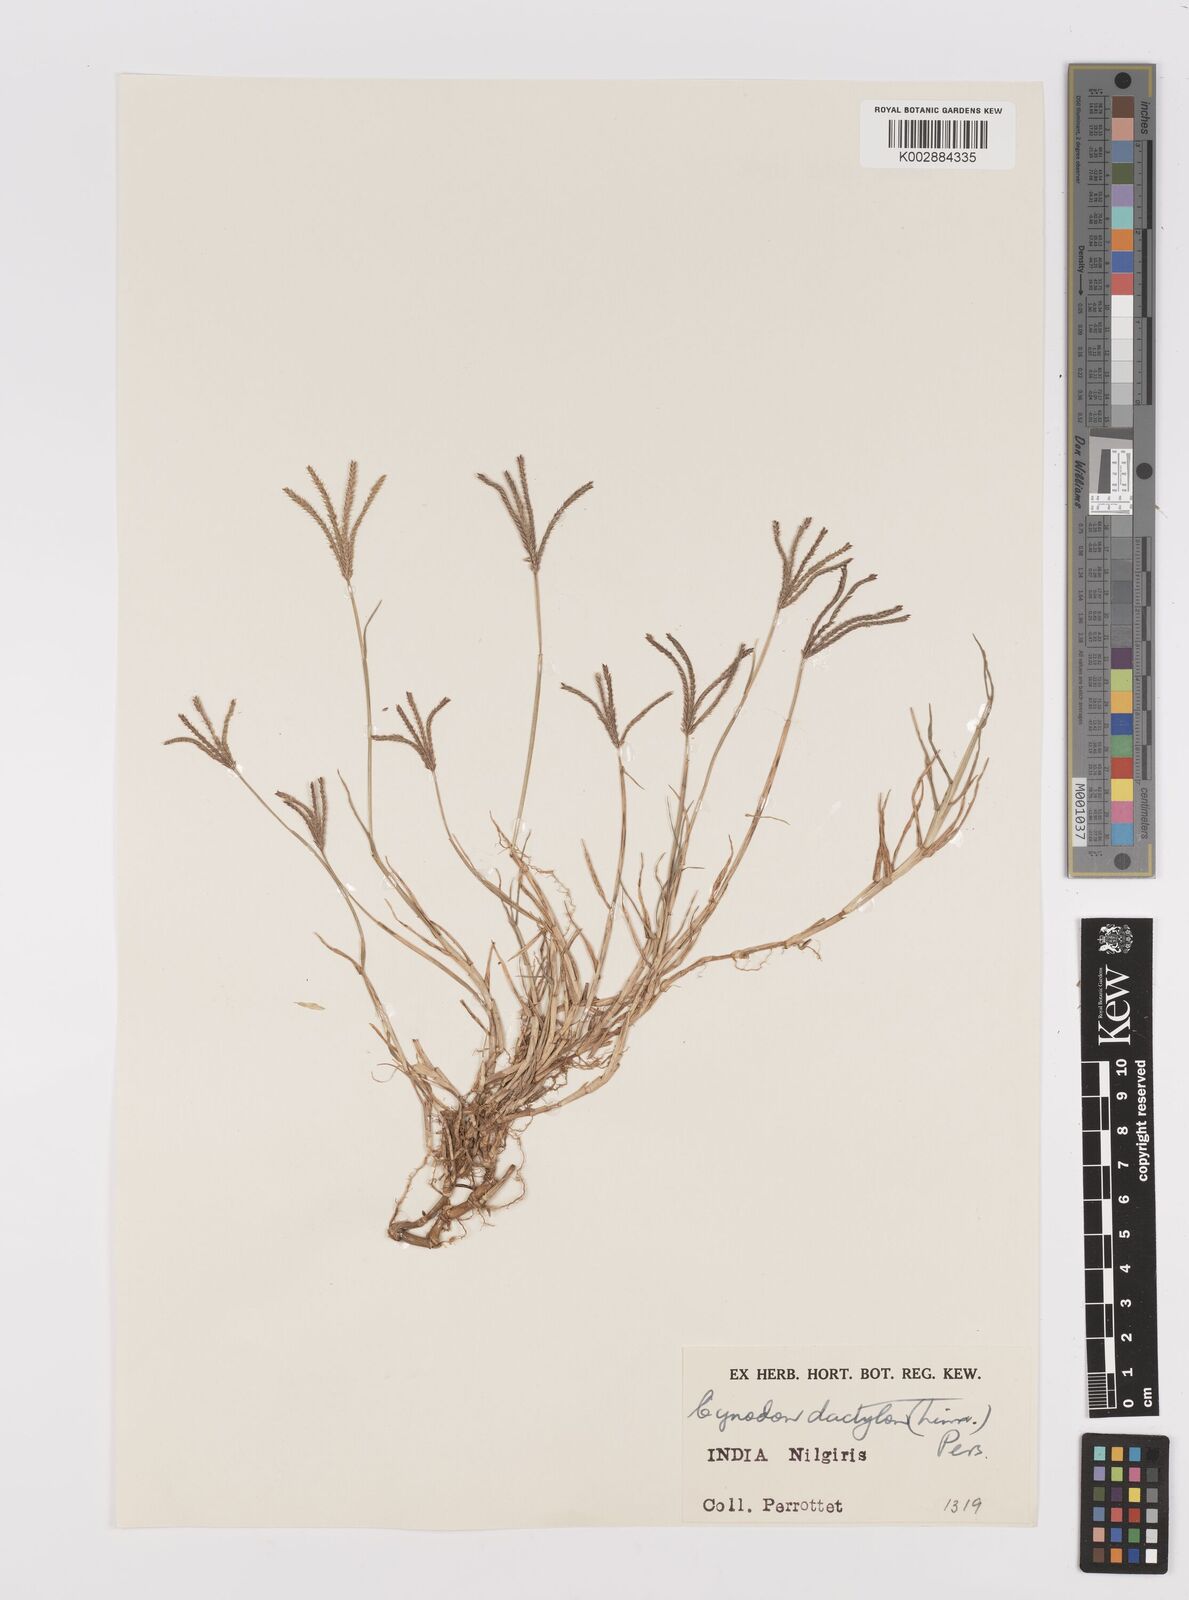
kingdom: Plantae
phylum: Tracheophyta
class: Liliopsida
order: Poales
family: Poaceae
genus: Cynodon
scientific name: Cynodon dactylon
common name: Bermuda grass
